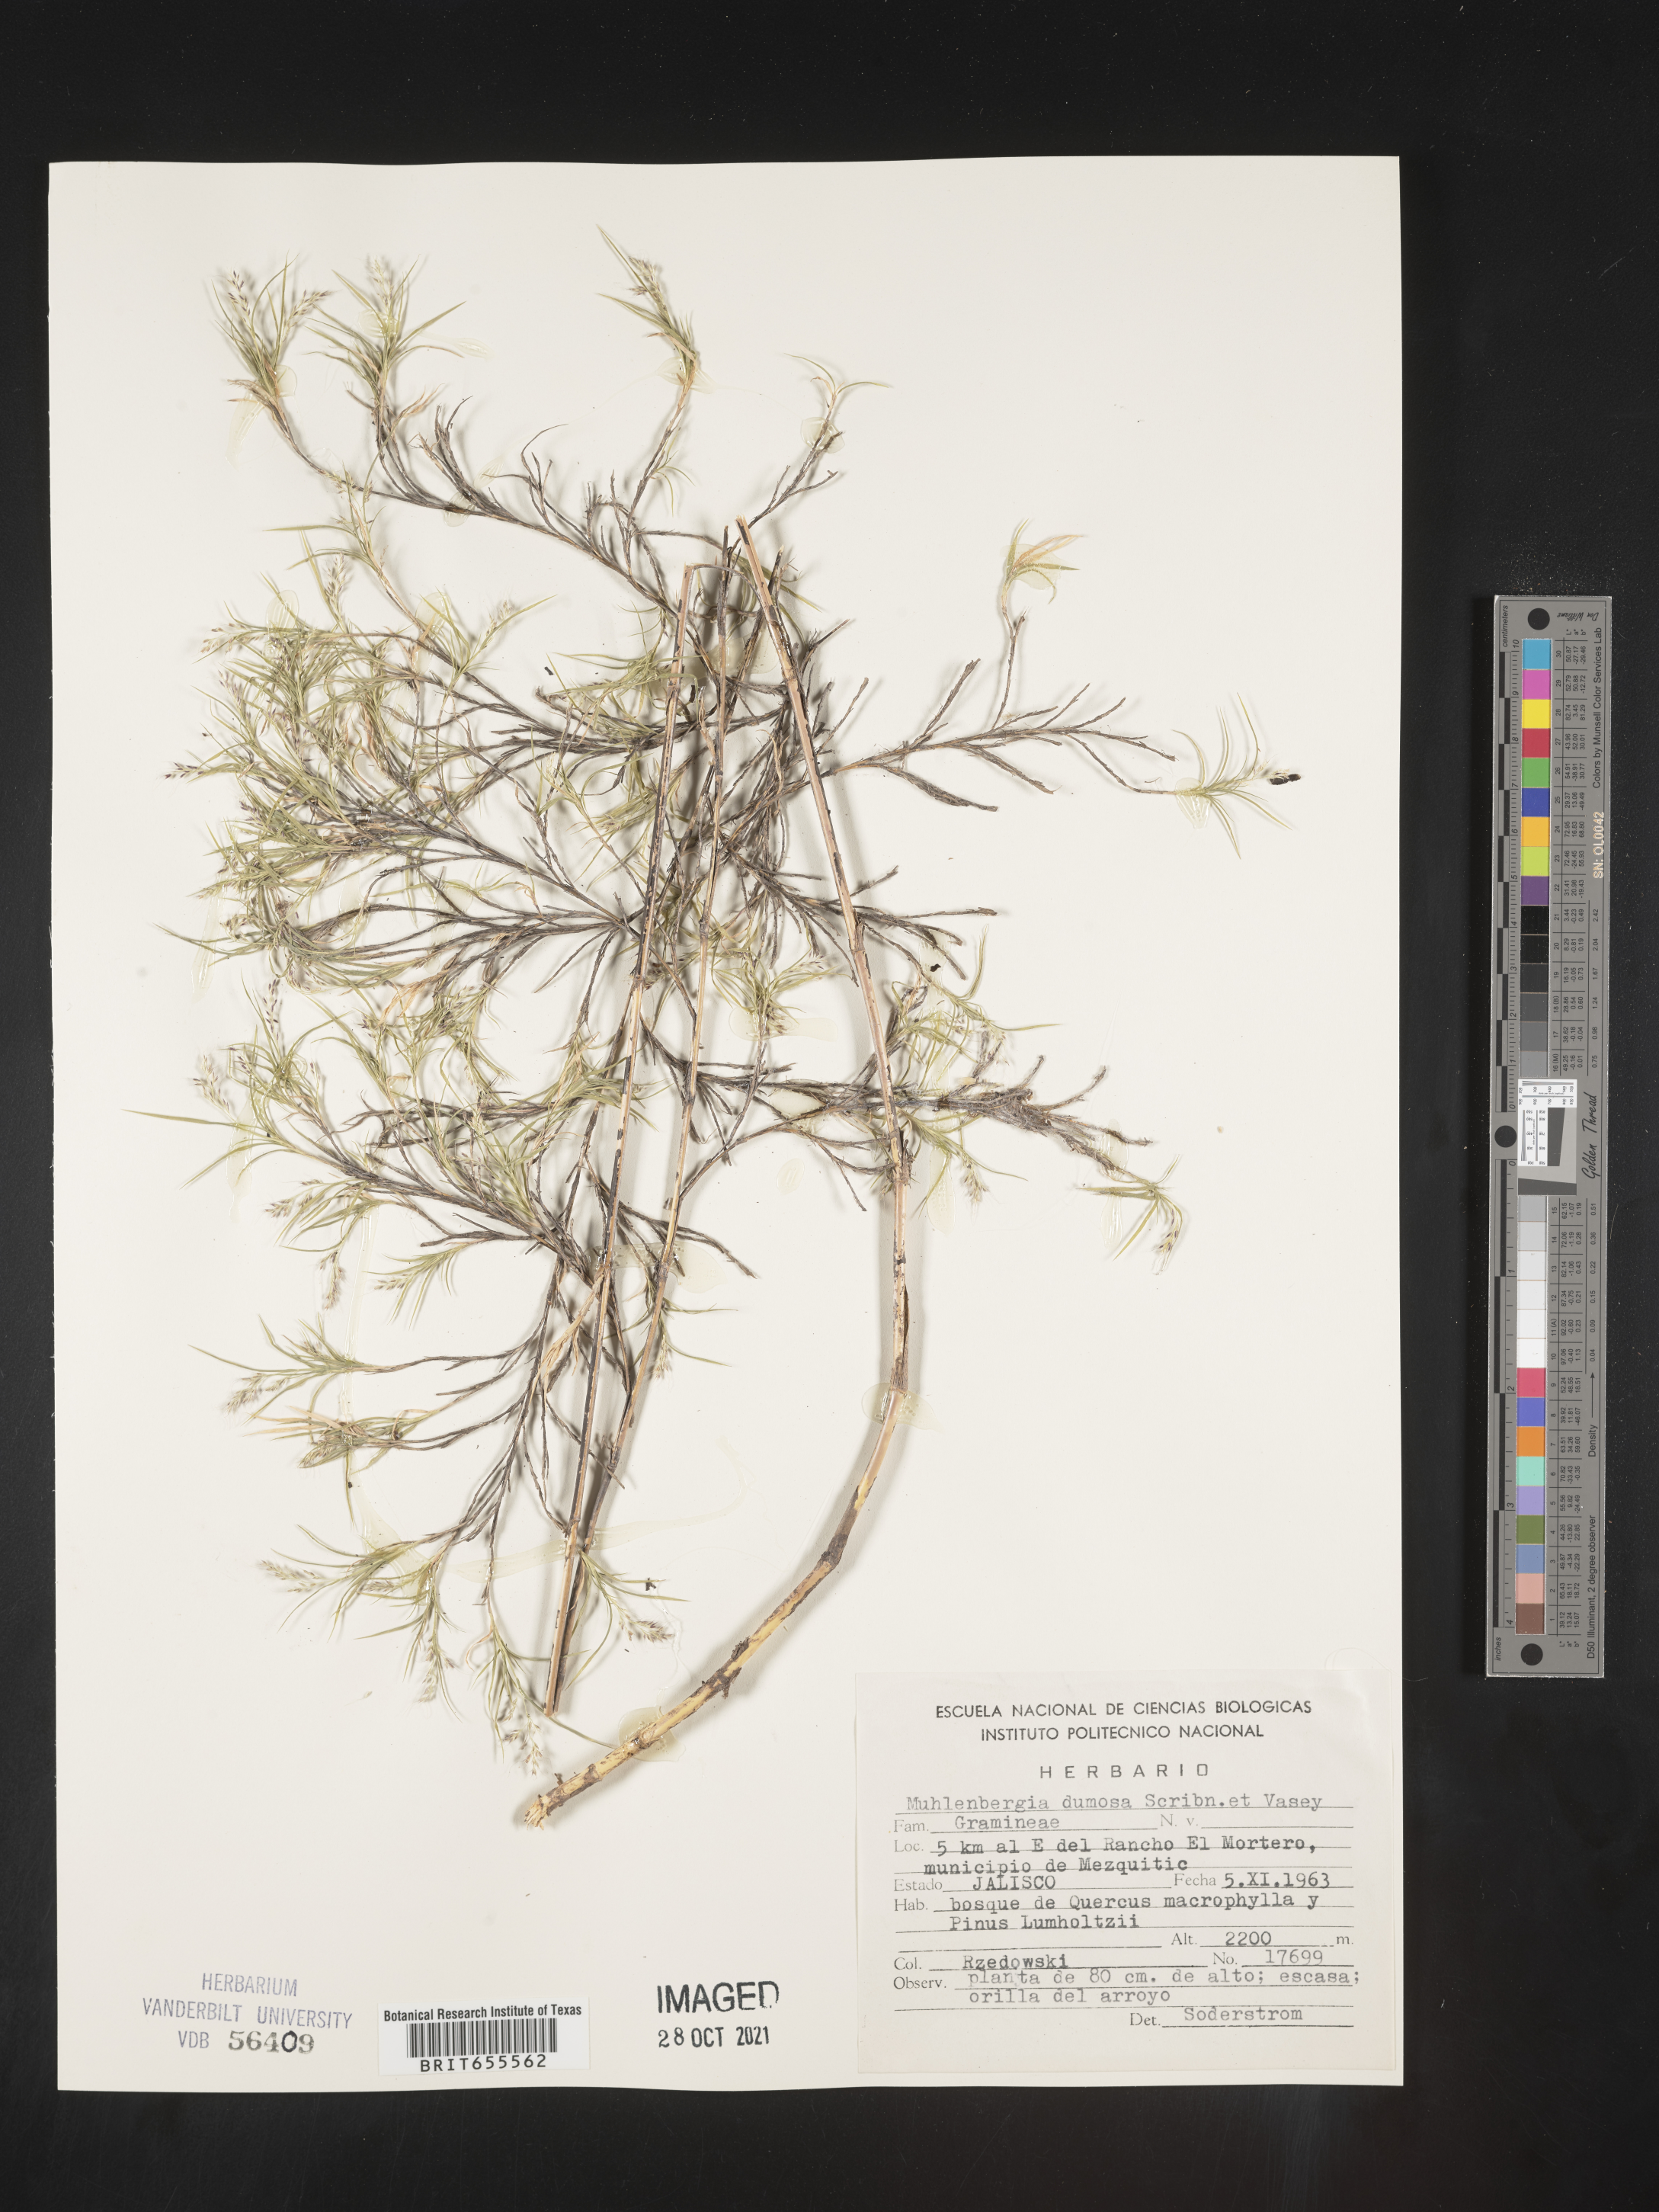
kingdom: Plantae
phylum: Tracheophyta
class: Liliopsida
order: Poales
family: Poaceae
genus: Muhlenbergia
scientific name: Muhlenbergia
